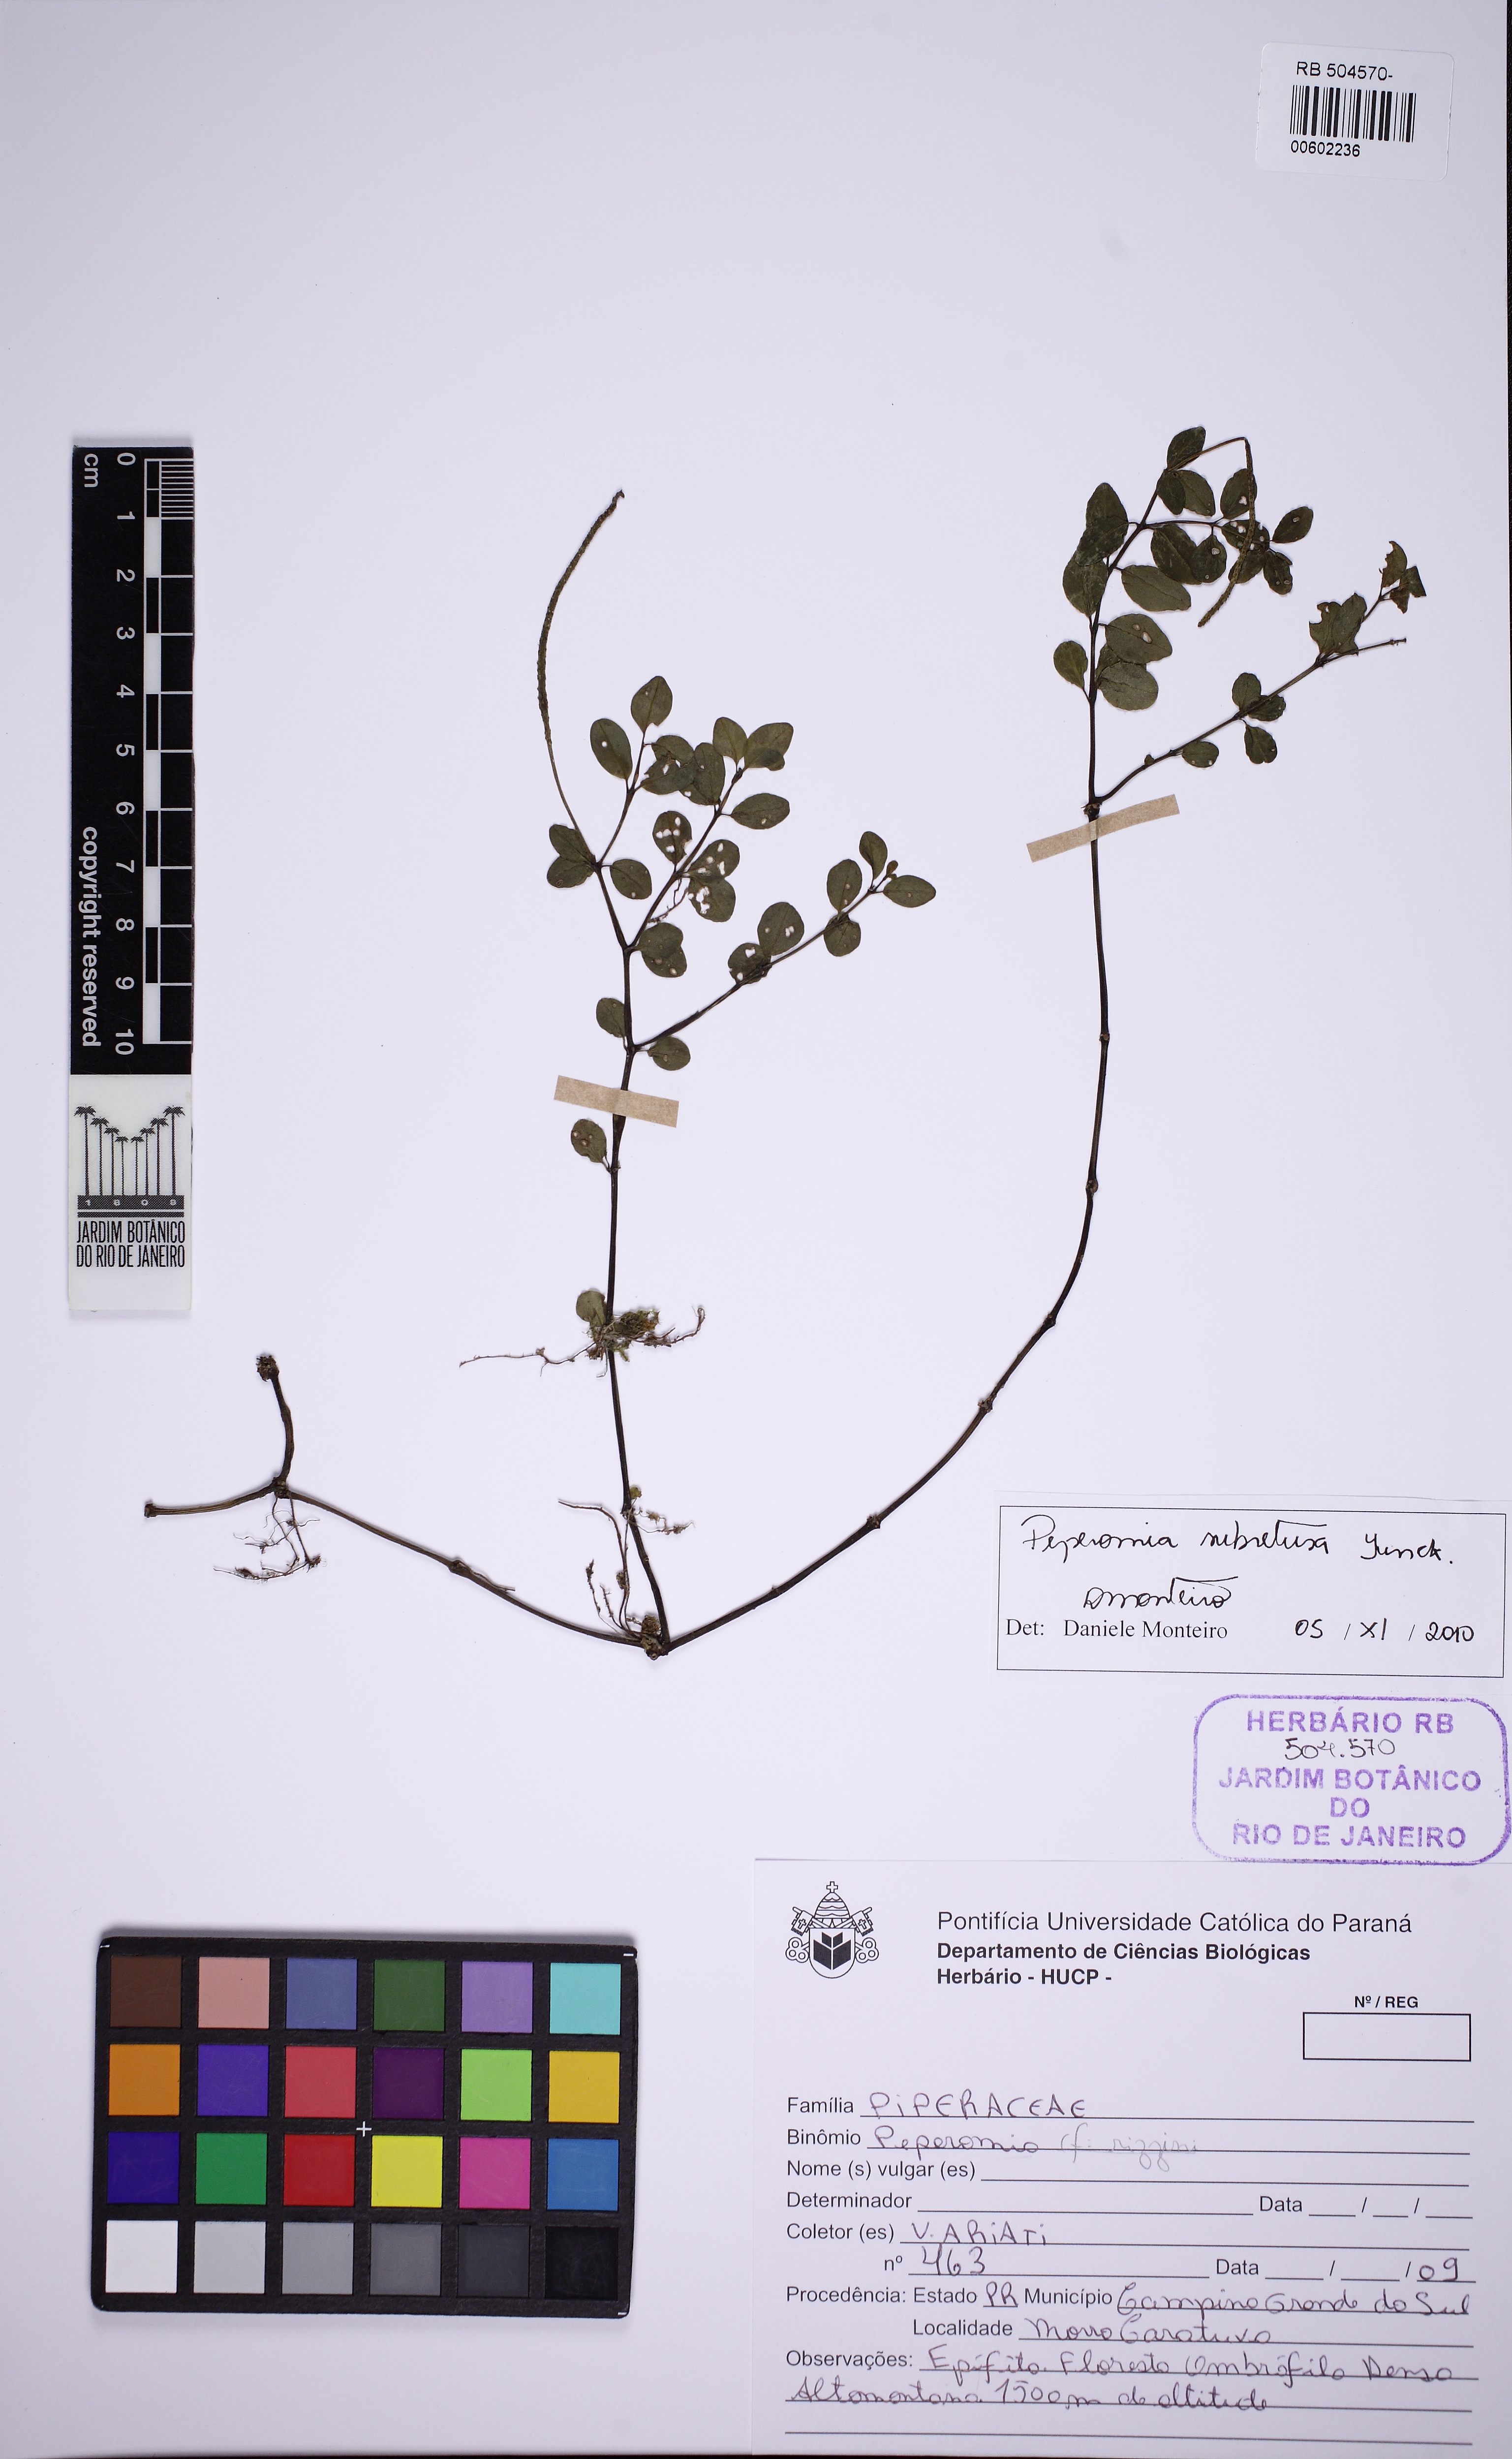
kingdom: Plantae
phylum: Tracheophyta
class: Magnoliopsida
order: Piperales
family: Piperaceae
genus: Peperomia
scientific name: Peperomia subretusa
